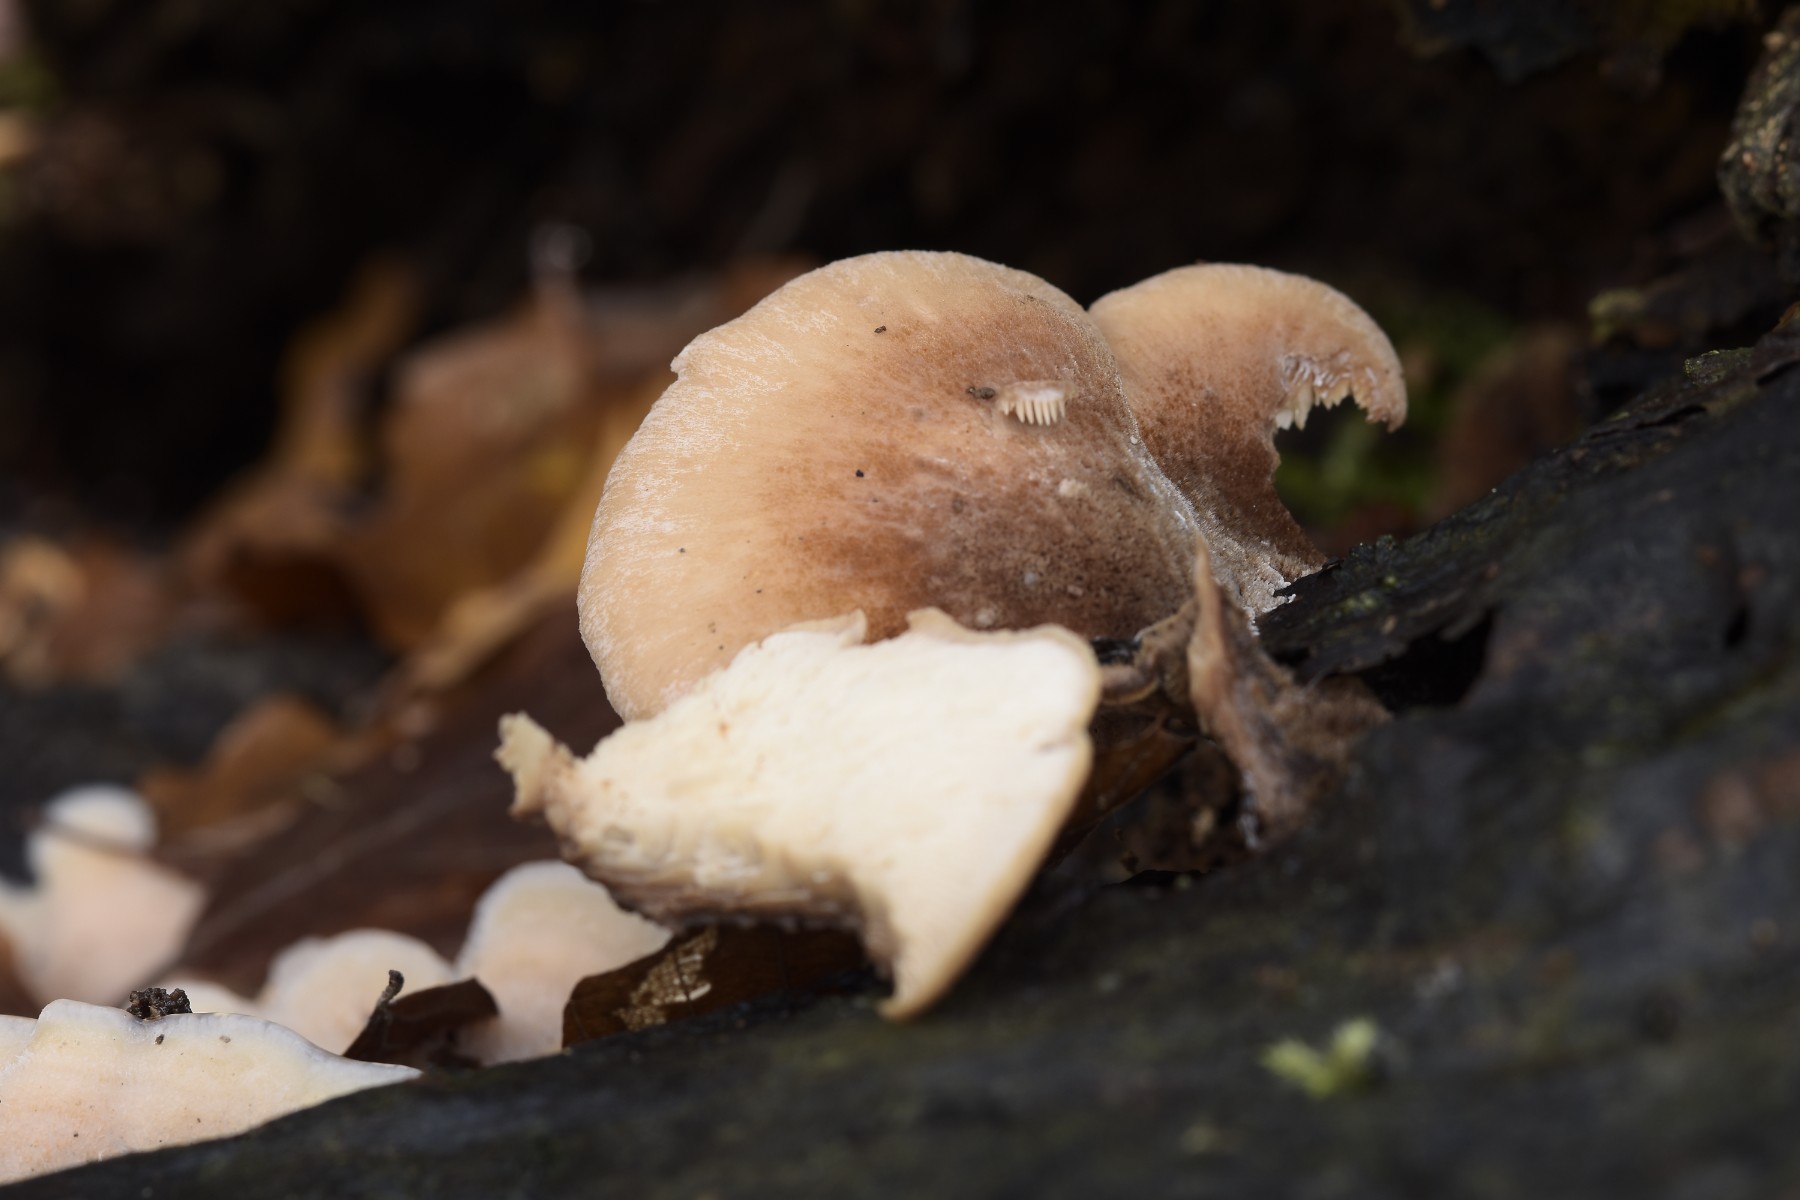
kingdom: Fungi
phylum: Basidiomycota
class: Agaricomycetes
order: Russulales
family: Auriscalpiaceae
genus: Lentinellus
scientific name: Lentinellus ursinus
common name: børstehåret savbladhat
